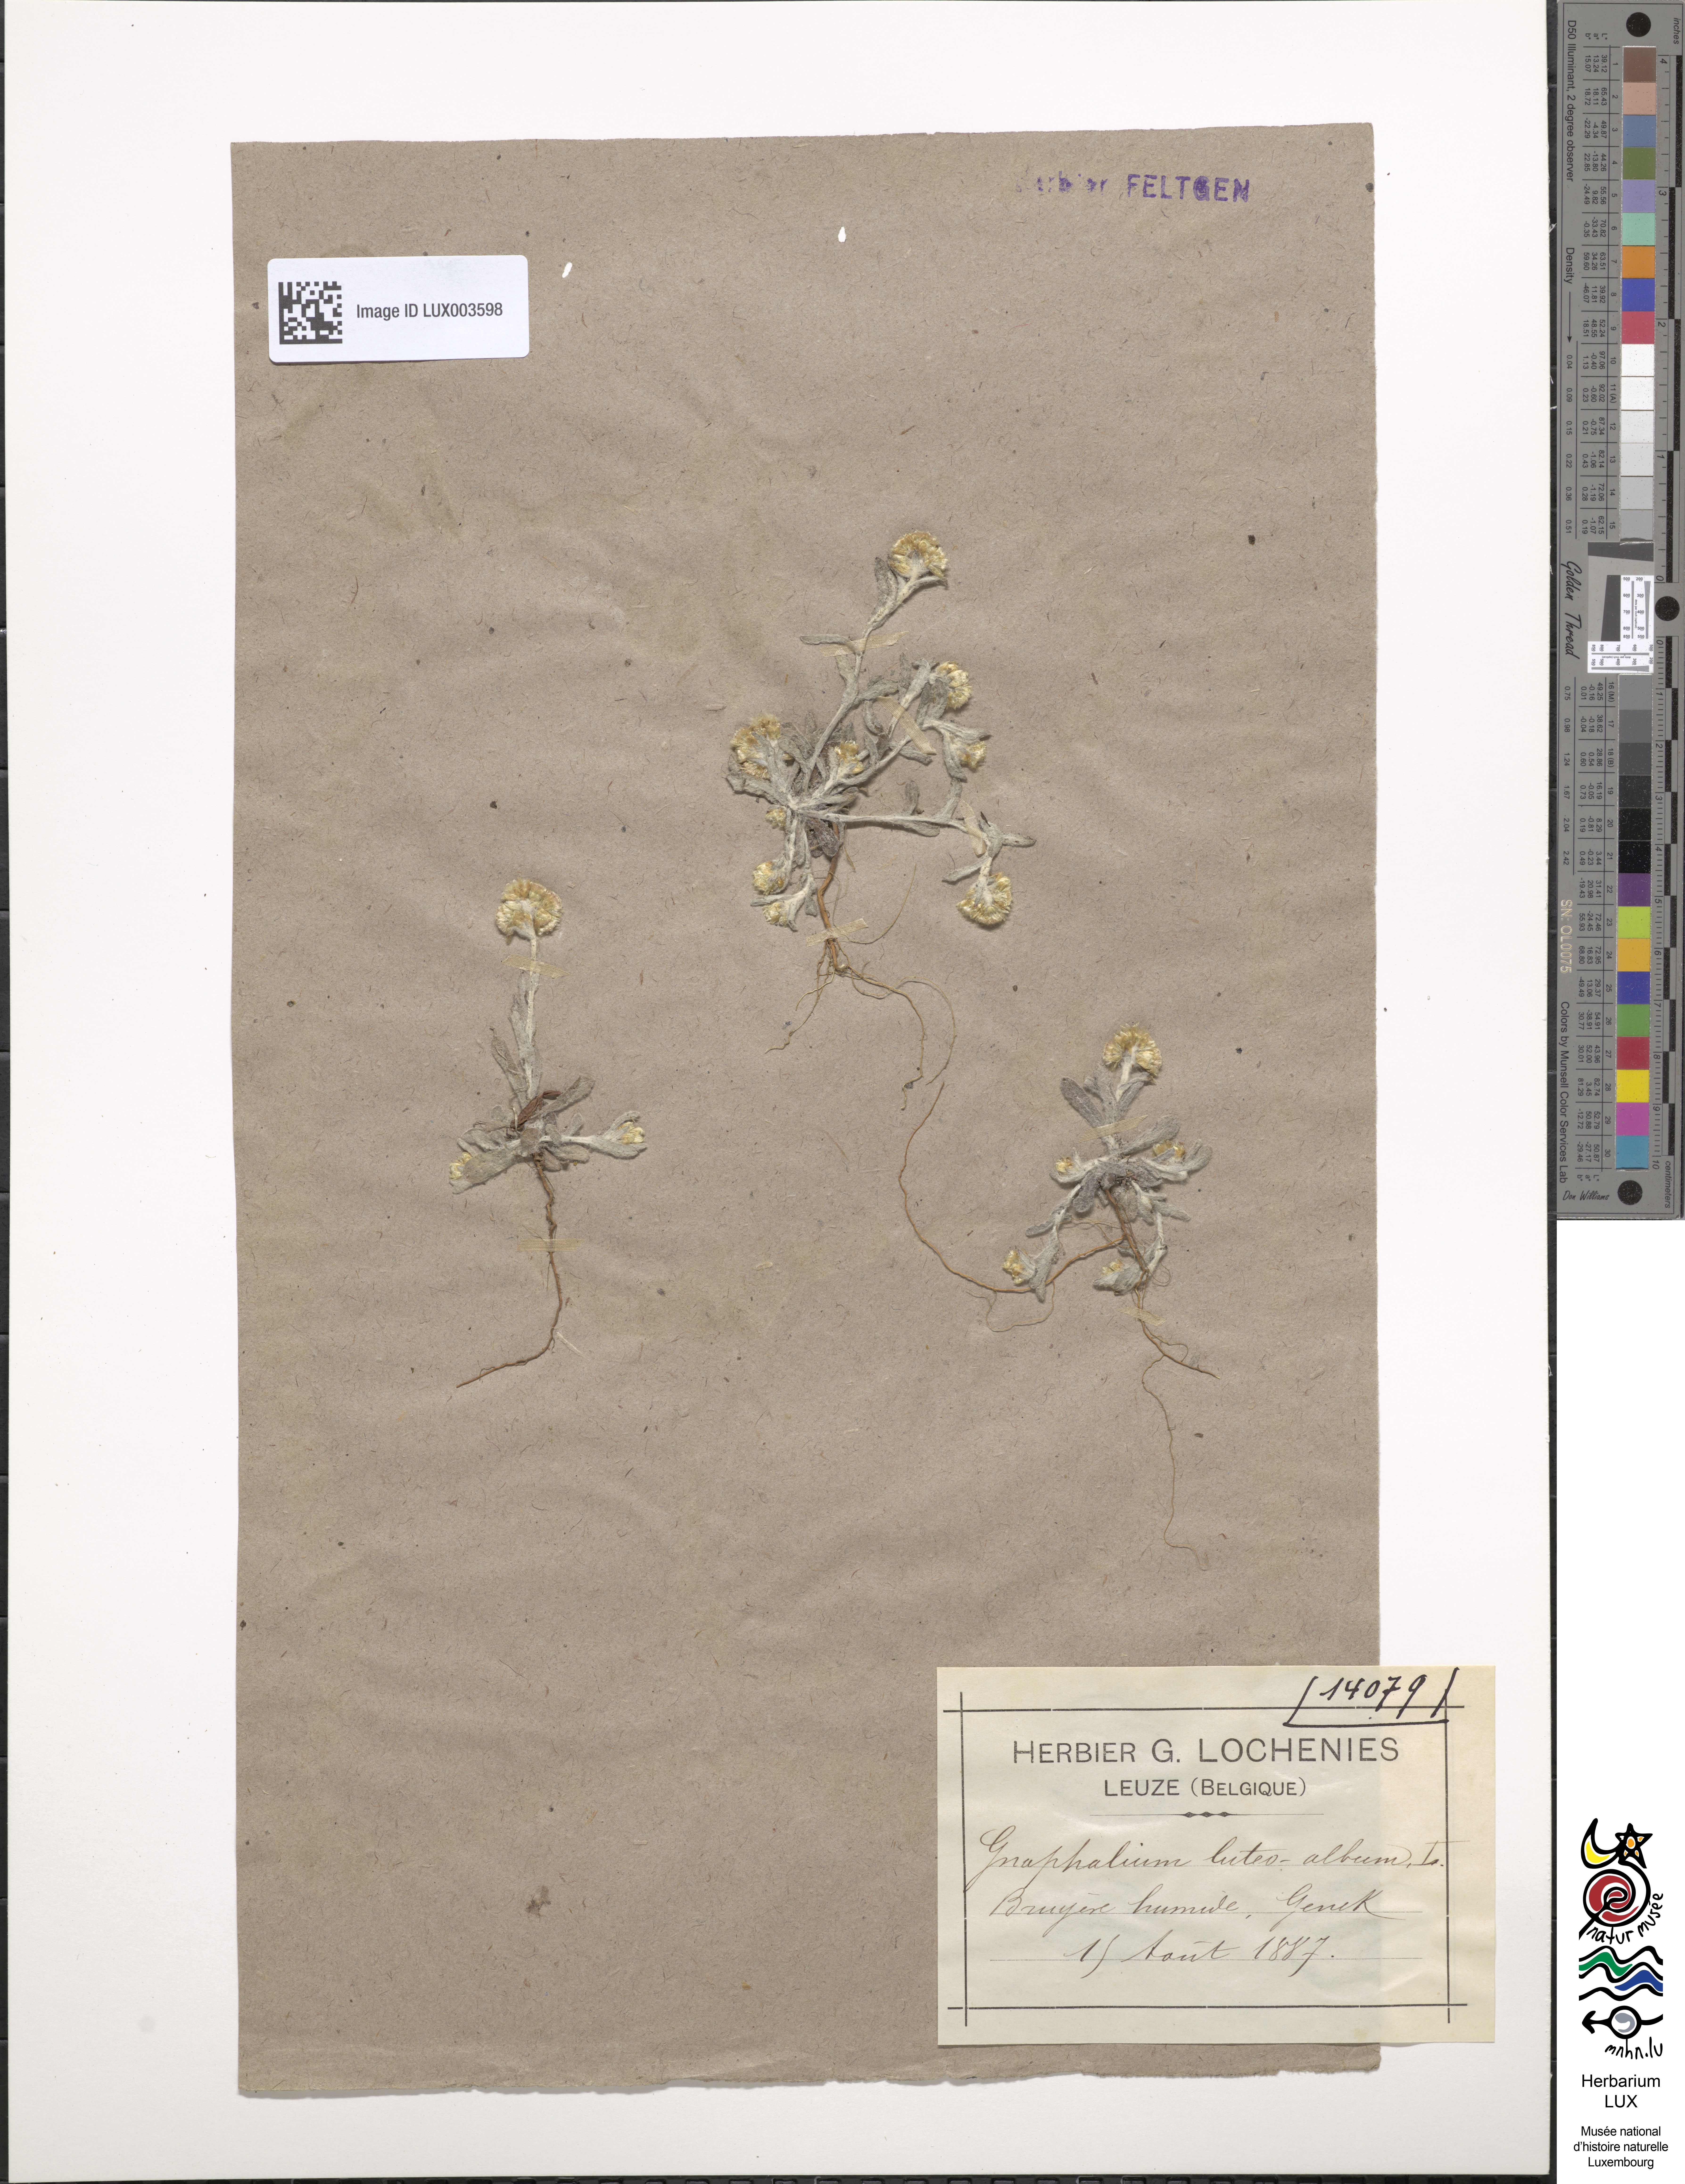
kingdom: Plantae
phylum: Tracheophyta
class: Magnoliopsida
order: Asterales
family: Asteraceae
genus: Helichrysum
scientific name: Helichrysum luteoalbum
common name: Daisy
